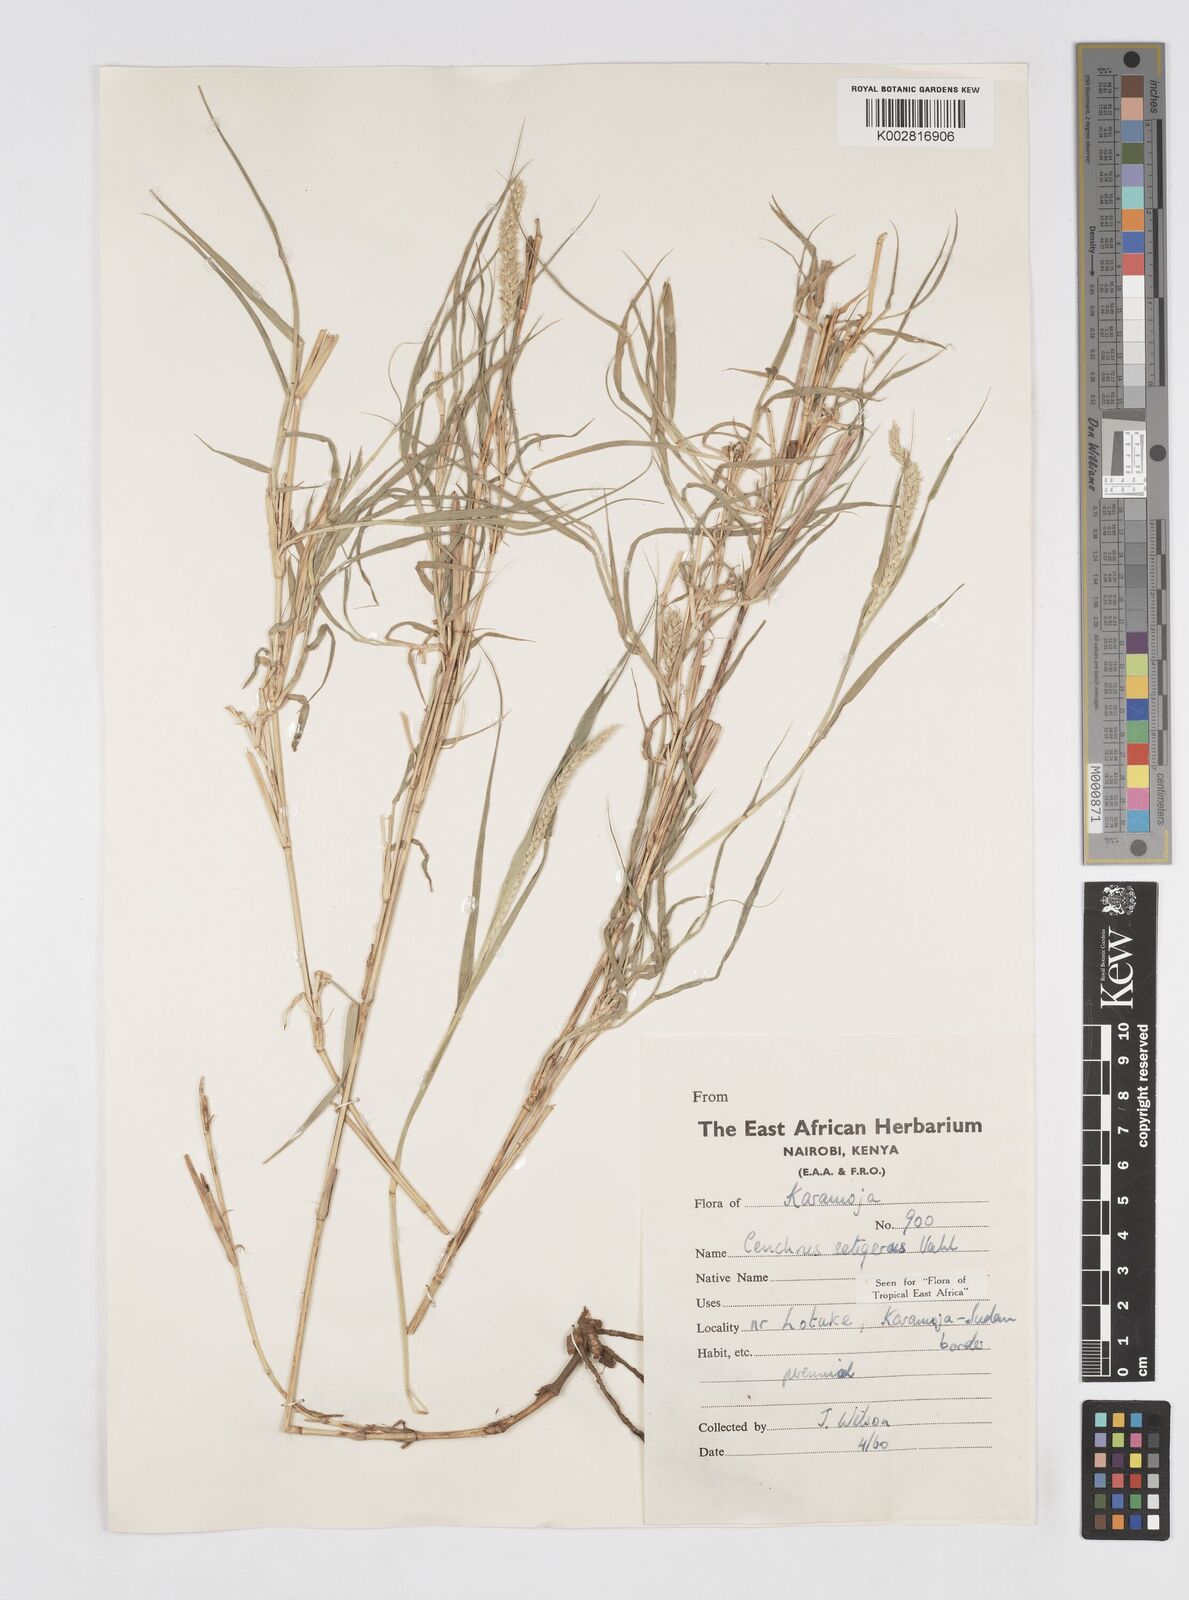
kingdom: Plantae
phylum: Tracheophyta
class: Liliopsida
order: Poales
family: Poaceae
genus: Cenchrus
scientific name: Cenchrus setigerus
